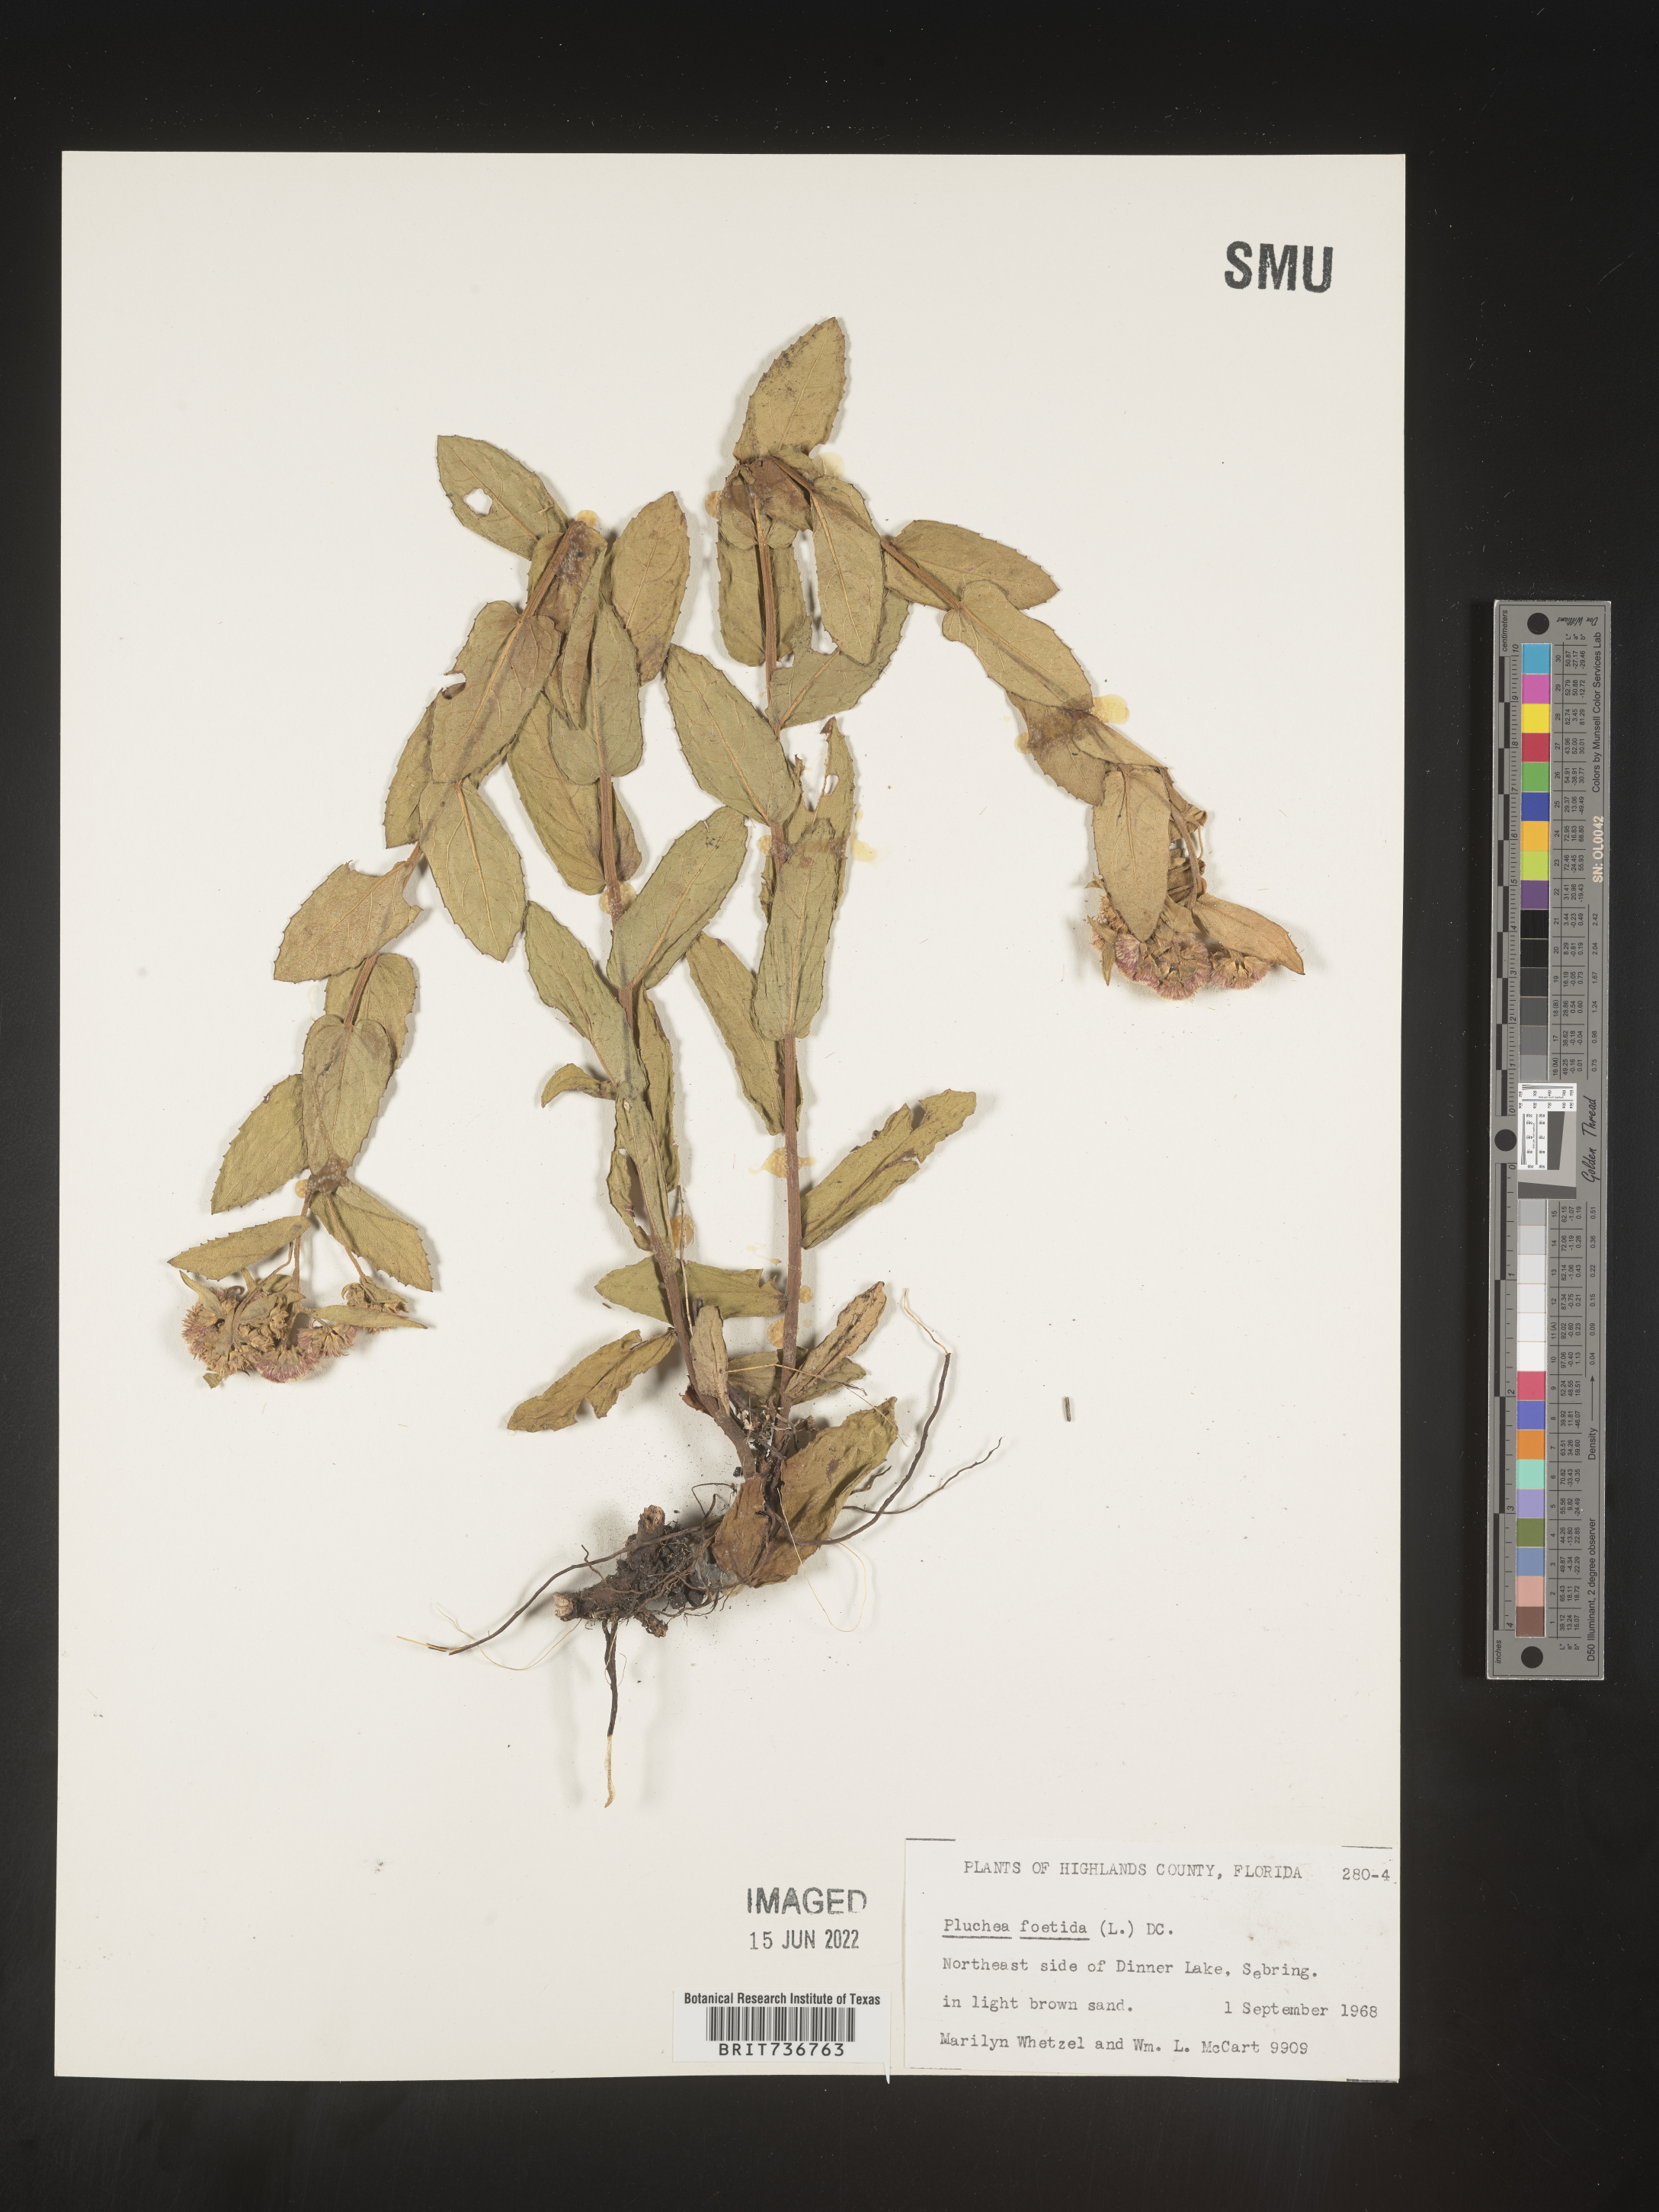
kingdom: Plantae
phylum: Tracheophyta
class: Magnoliopsida
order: Asterales
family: Asteraceae
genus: Pluchea
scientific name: Pluchea baccharis
